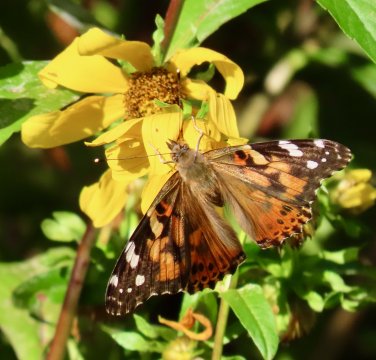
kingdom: Animalia
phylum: Arthropoda
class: Insecta
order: Lepidoptera
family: Nymphalidae
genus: Vanessa
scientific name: Vanessa cardui
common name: Painted Lady
